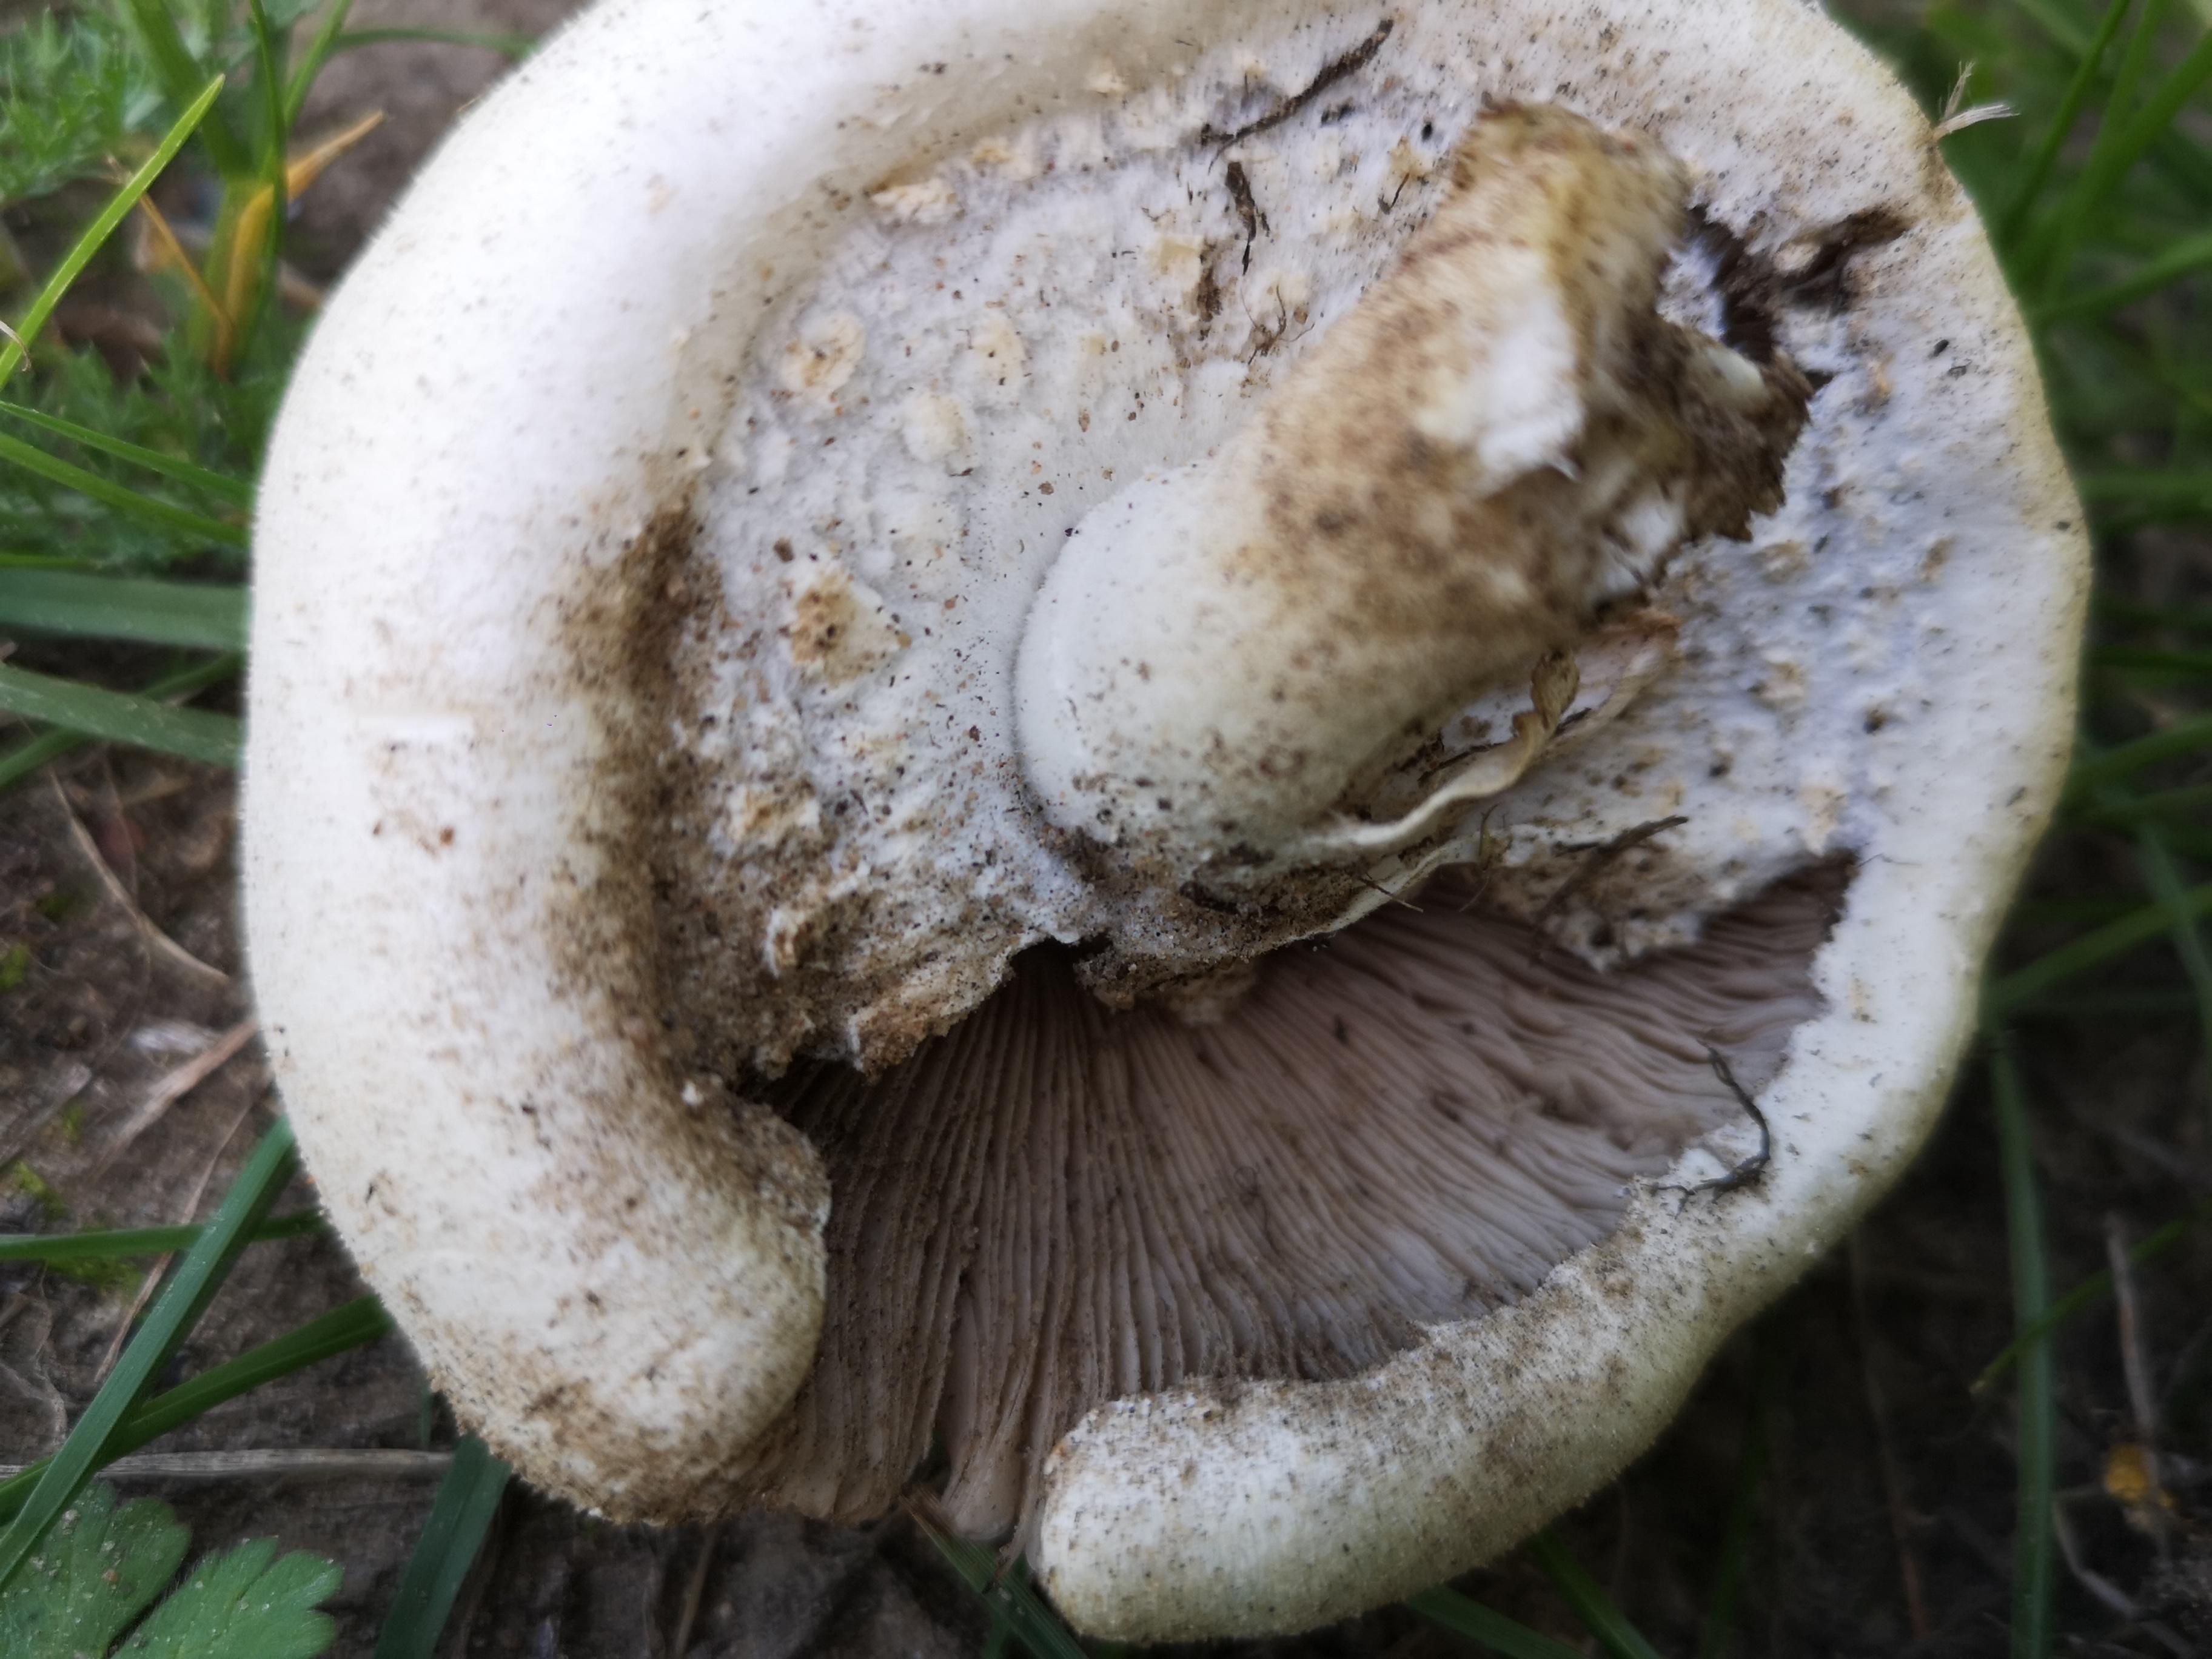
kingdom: Fungi
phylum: Basidiomycota
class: Agaricomycetes
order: Agaricales
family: Agaricaceae
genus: Agaricus
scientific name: Agaricus arvensis
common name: ager-champignon
